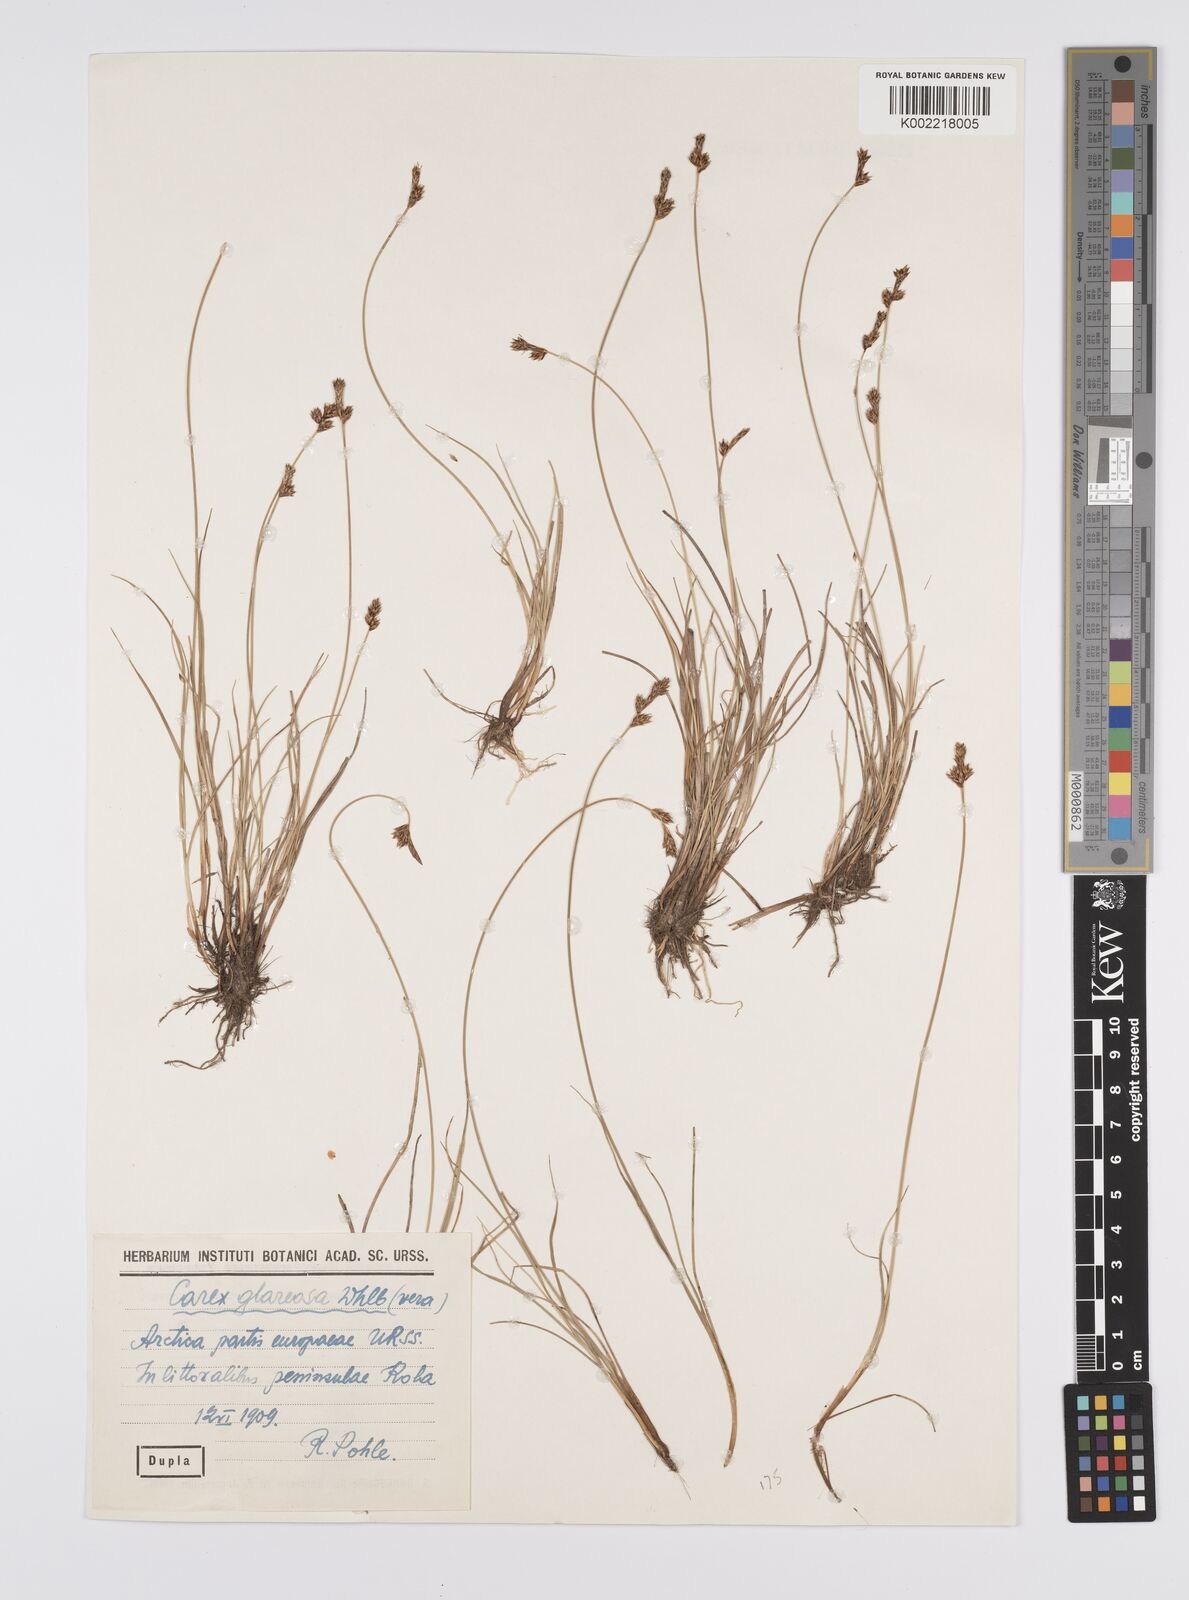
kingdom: Plantae
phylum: Tracheophyta
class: Liliopsida
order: Poales
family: Cyperaceae
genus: Carex
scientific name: Carex glareosa
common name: Clustered sedge
